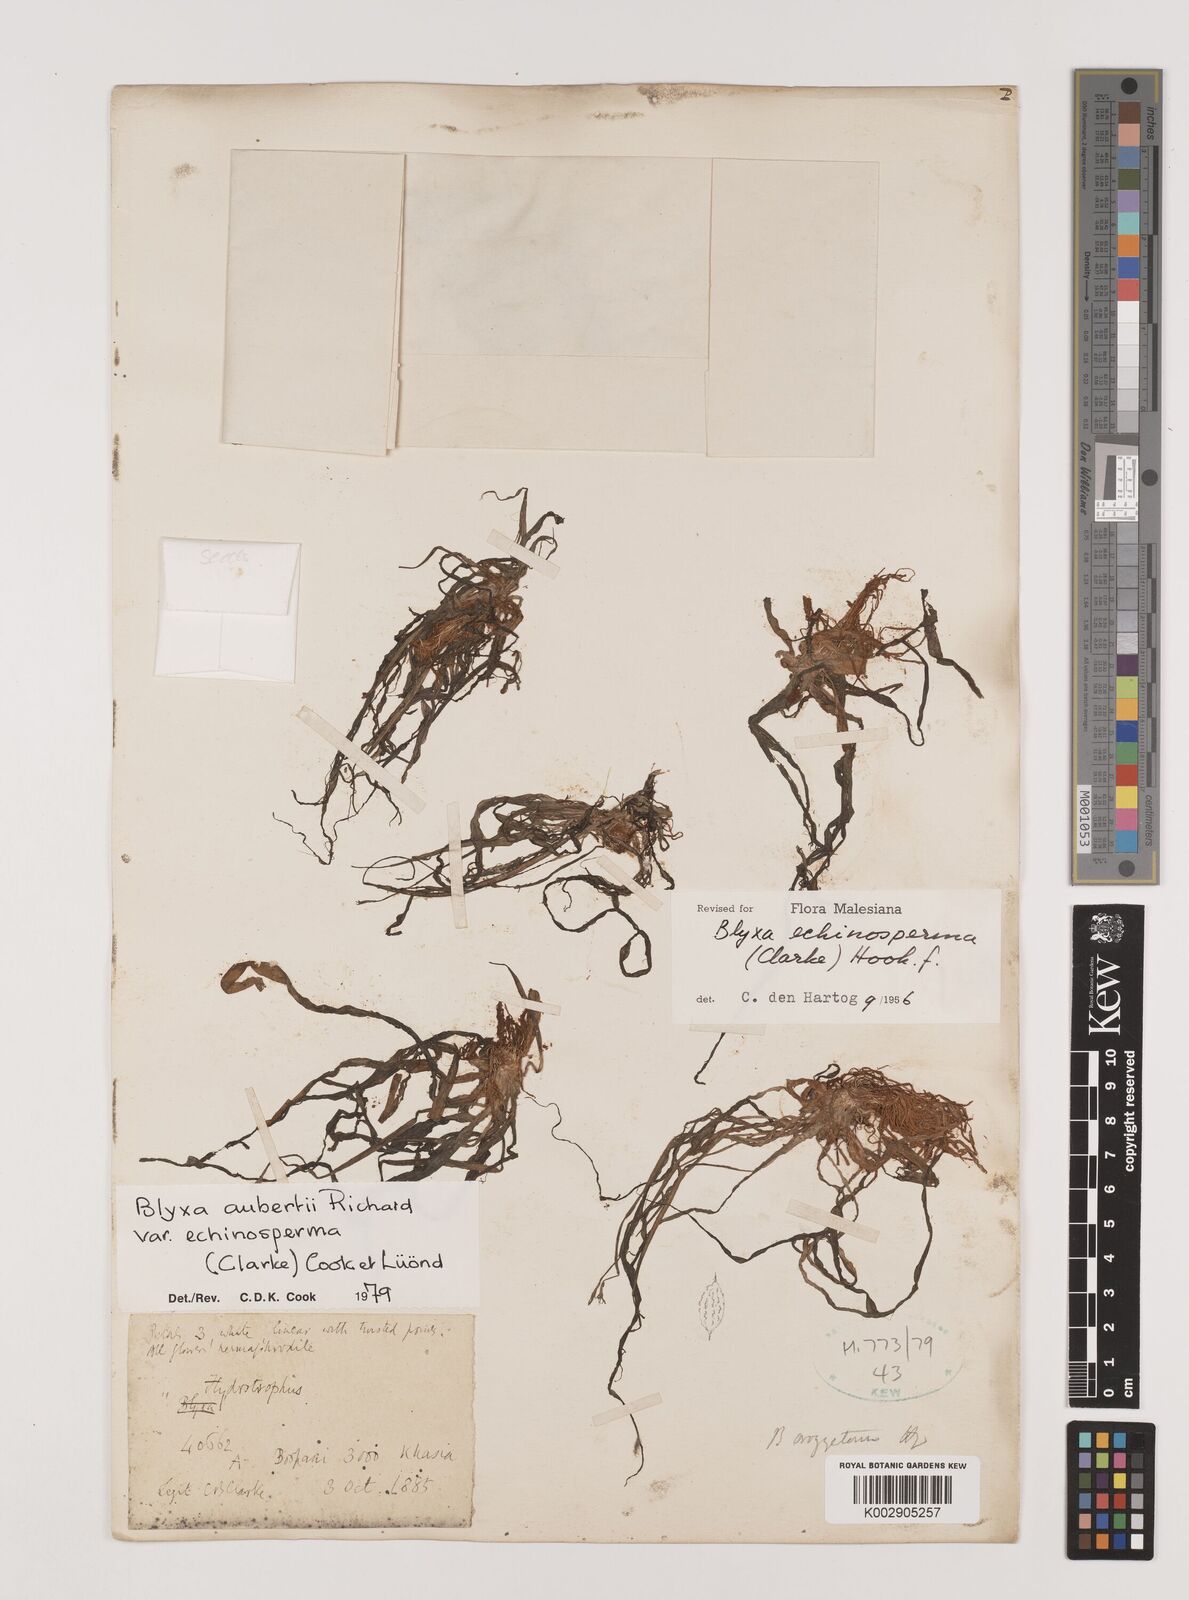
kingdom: Plantae
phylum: Tracheophyta
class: Liliopsida
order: Alismatales
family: Hydrocharitaceae
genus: Blyxa
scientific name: Blyxa echinosperma
